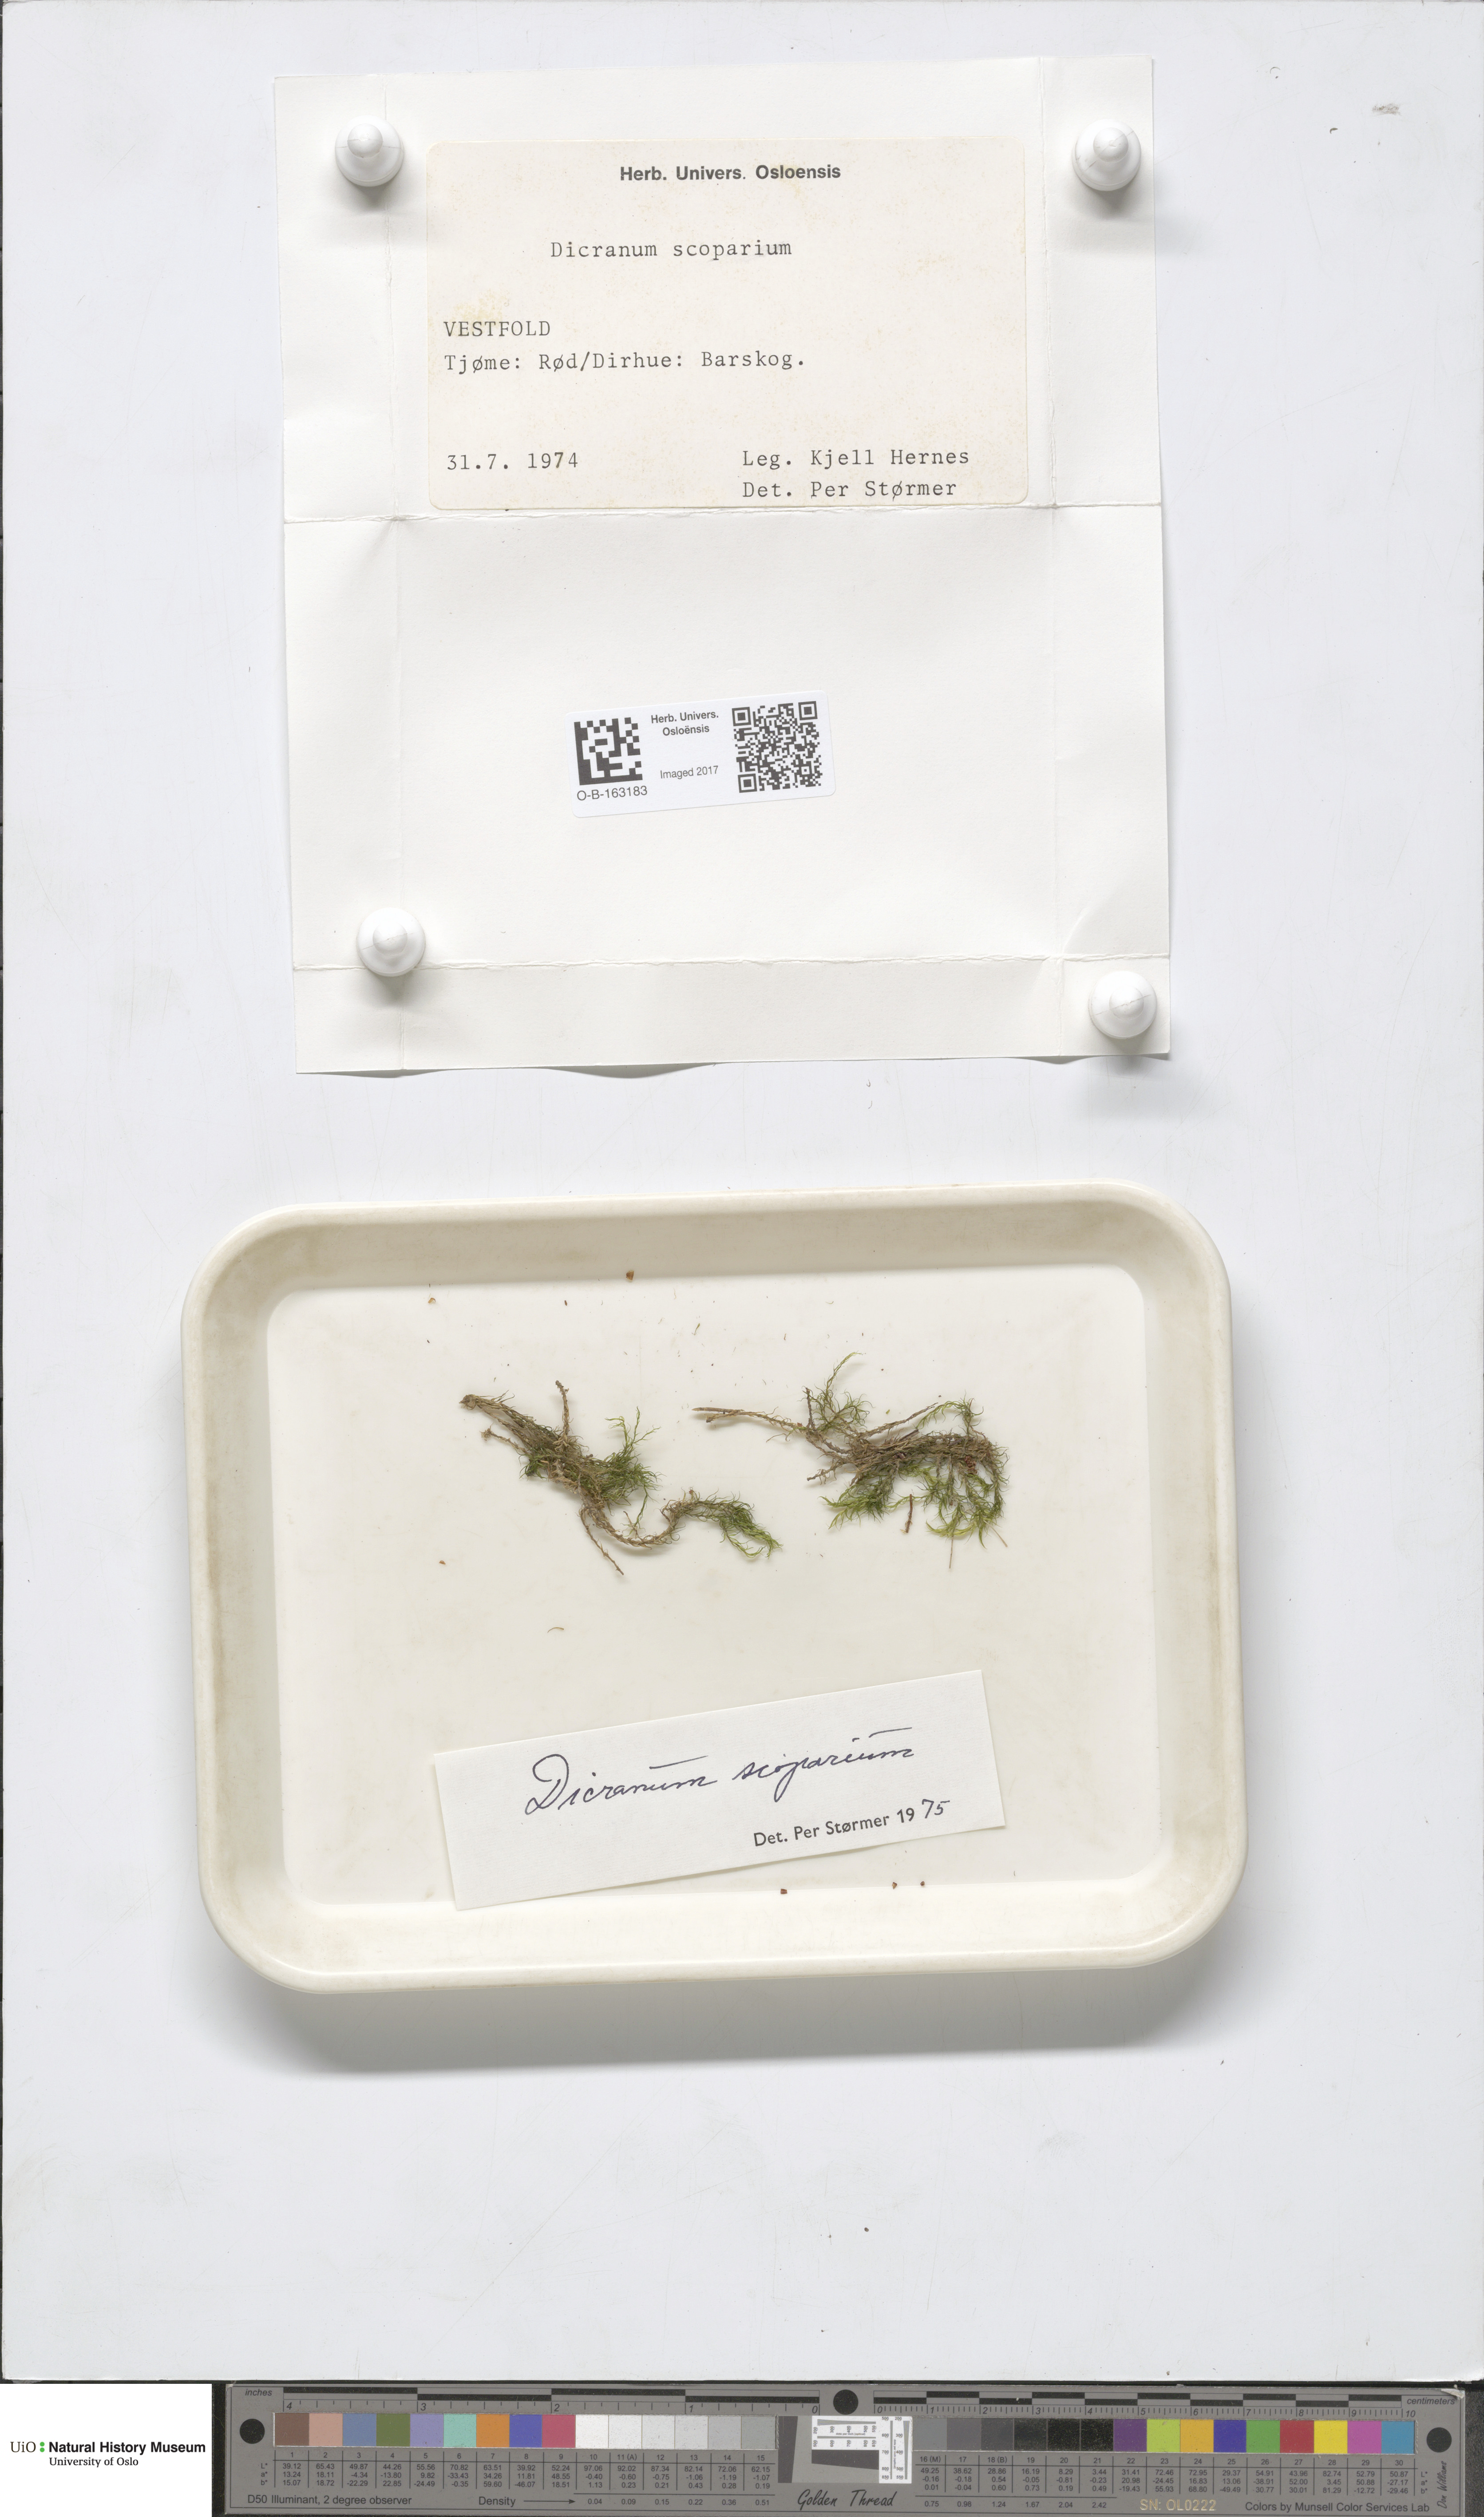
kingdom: Plantae
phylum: Bryophyta
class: Bryopsida
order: Dicranales
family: Dicranaceae
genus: Dicranum
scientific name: Dicranum scoparium
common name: Broom fork-moss
